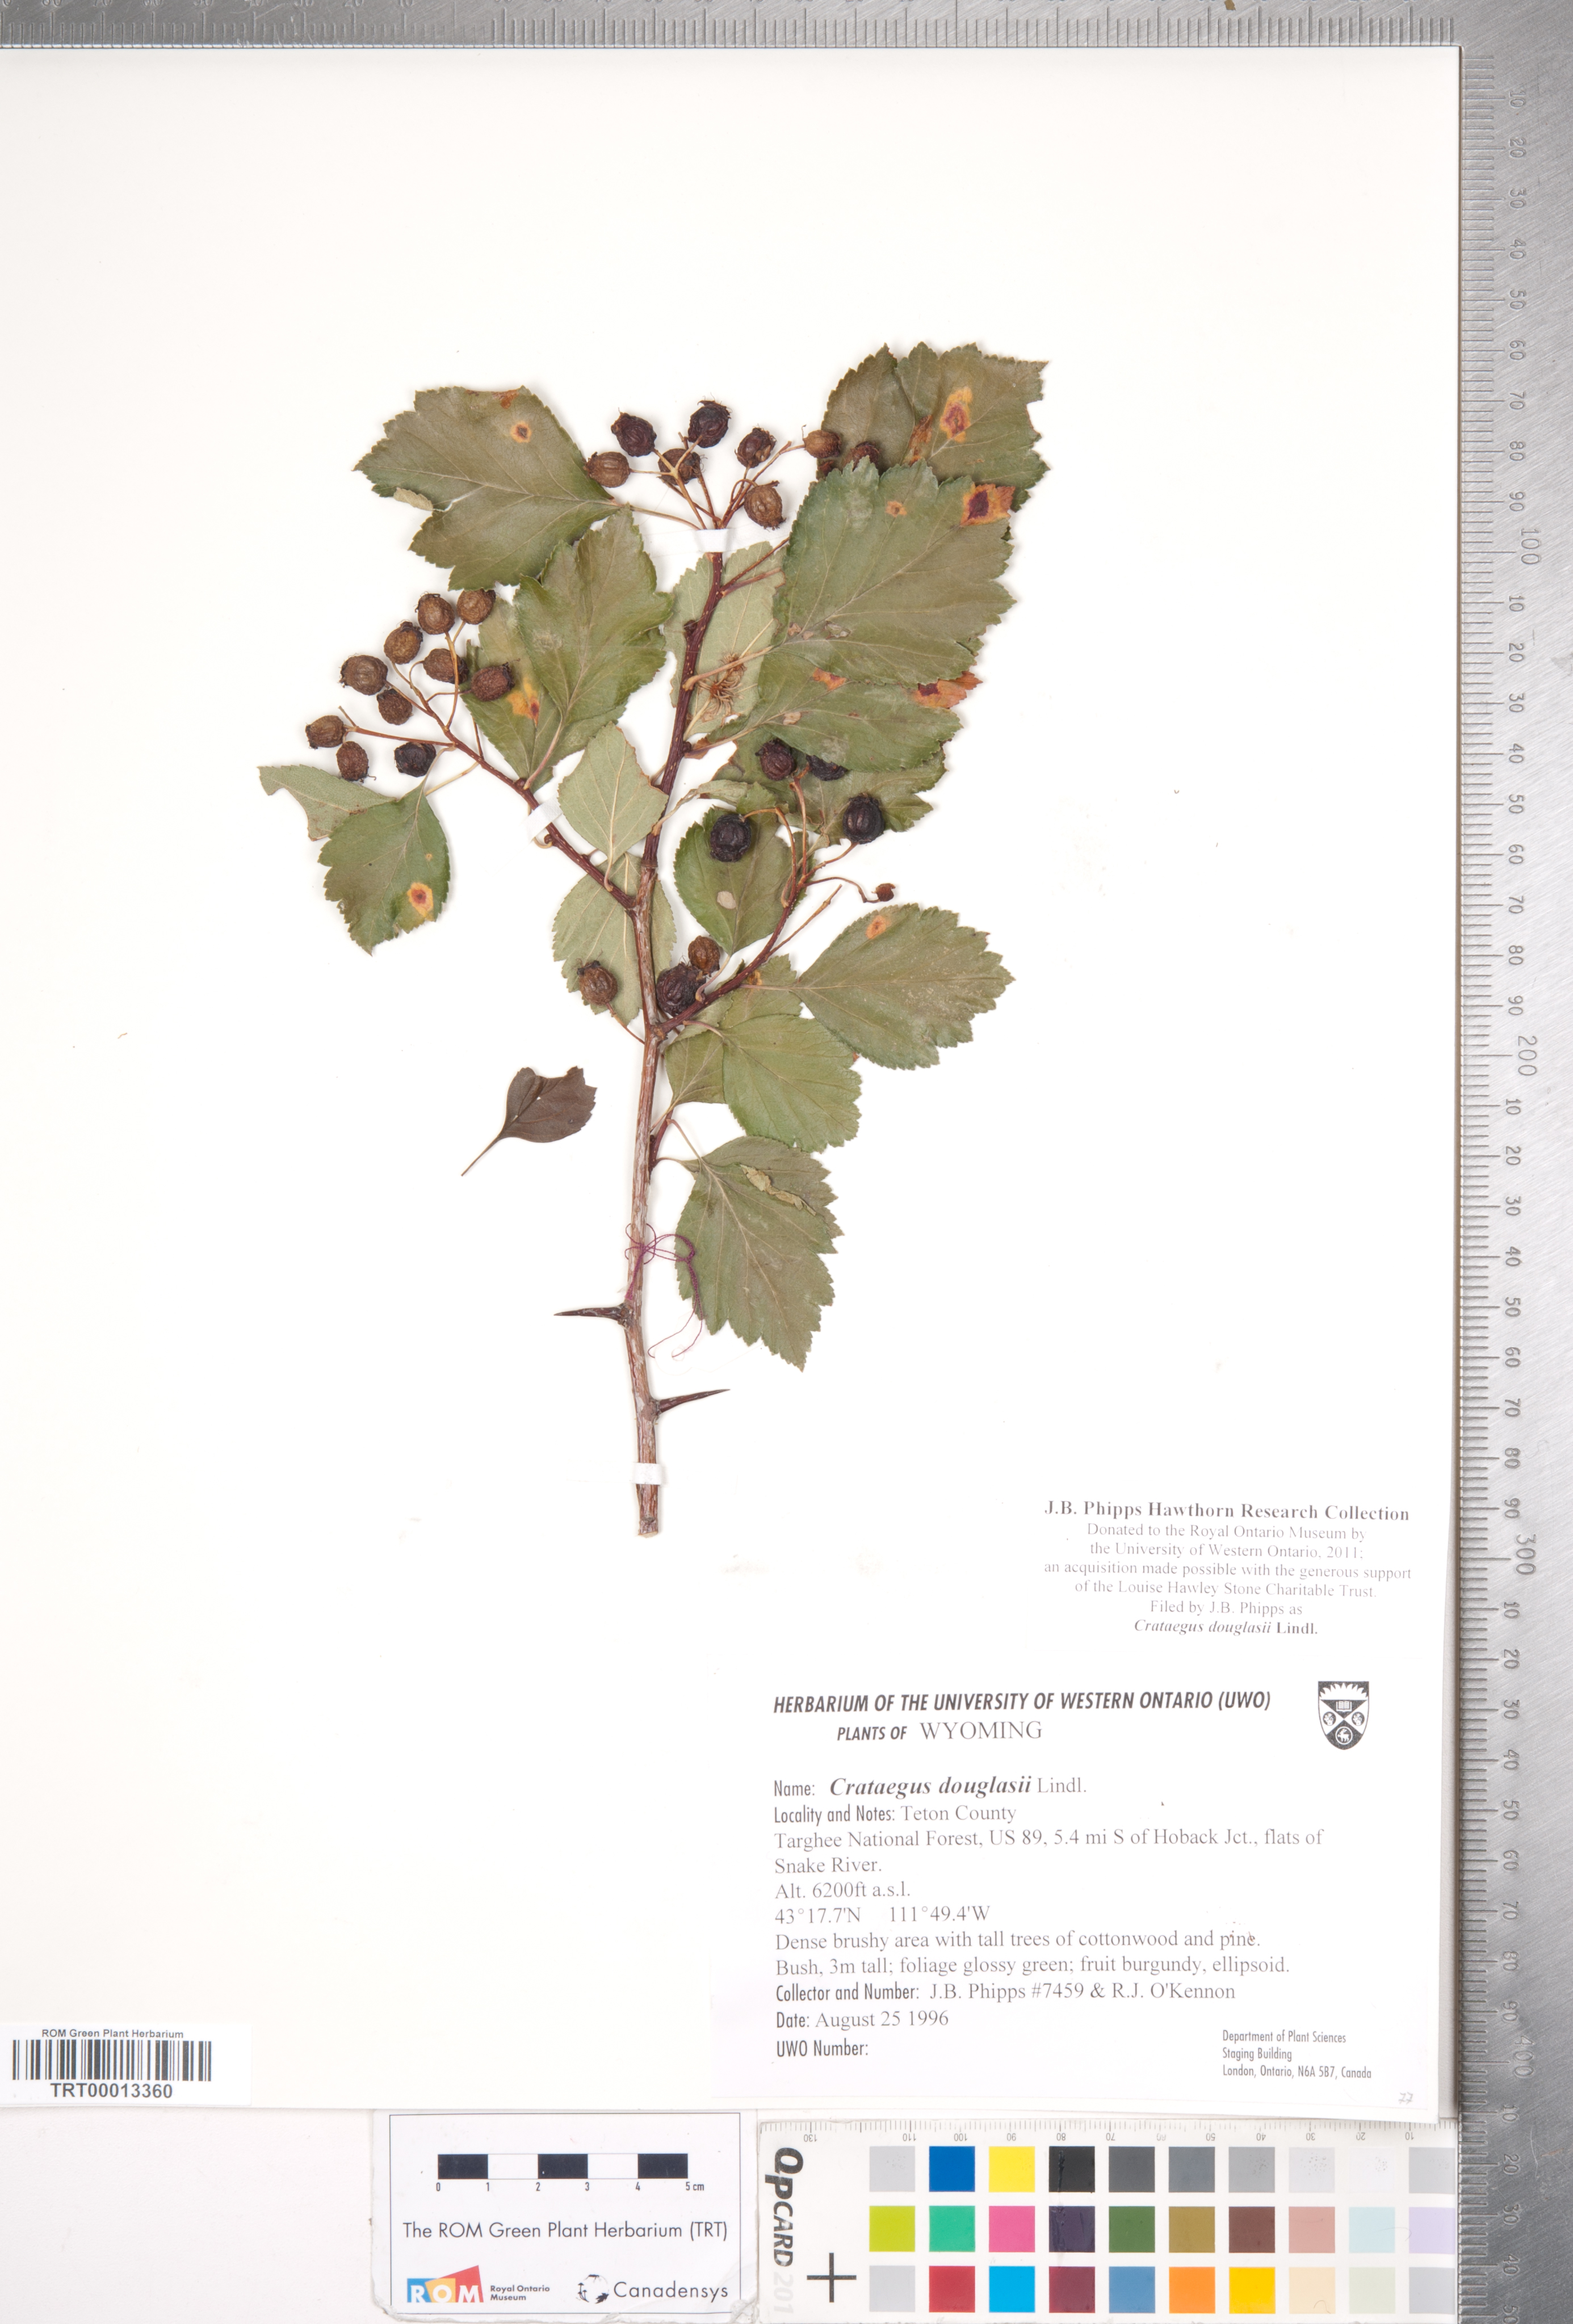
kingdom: Plantae
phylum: Tracheophyta
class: Magnoliopsida
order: Rosales
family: Rosaceae
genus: Crataegus
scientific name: Crataegus douglasii
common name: Black hawthorn
